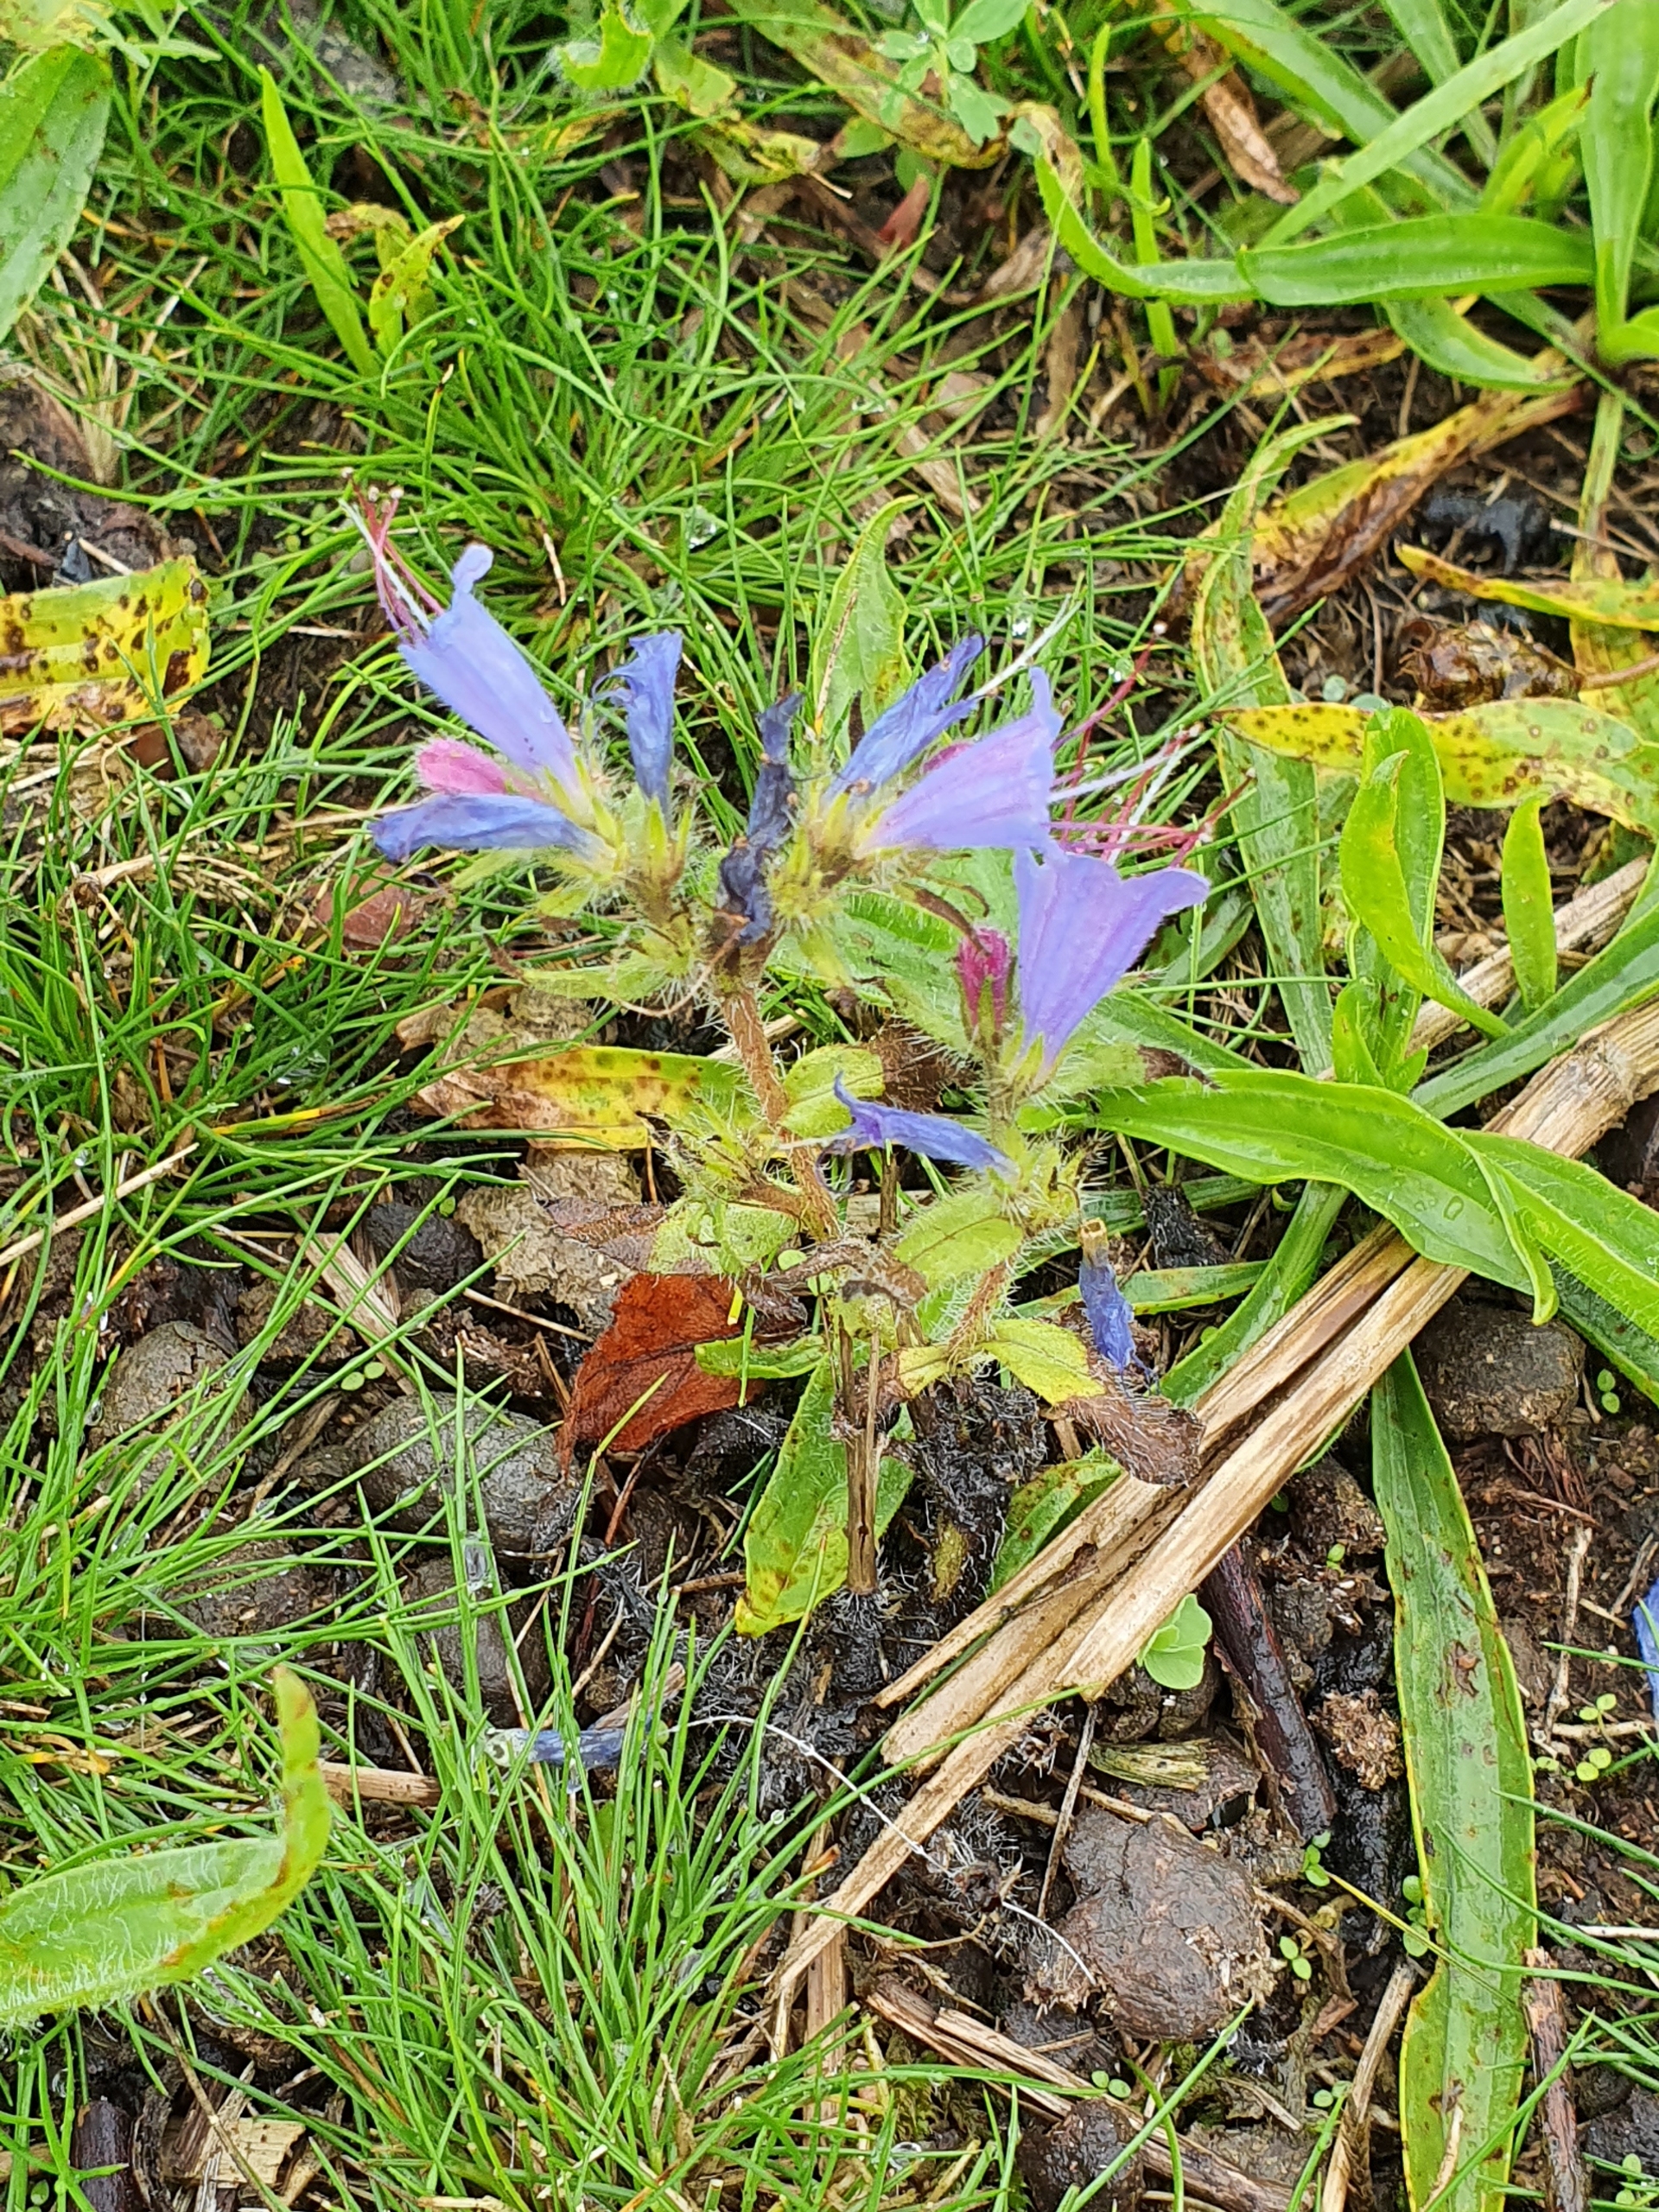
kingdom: Plantae
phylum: Tracheophyta
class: Magnoliopsida
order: Boraginales
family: Boraginaceae
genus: Echium
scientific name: Echium vulgare
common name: Slangehoved
